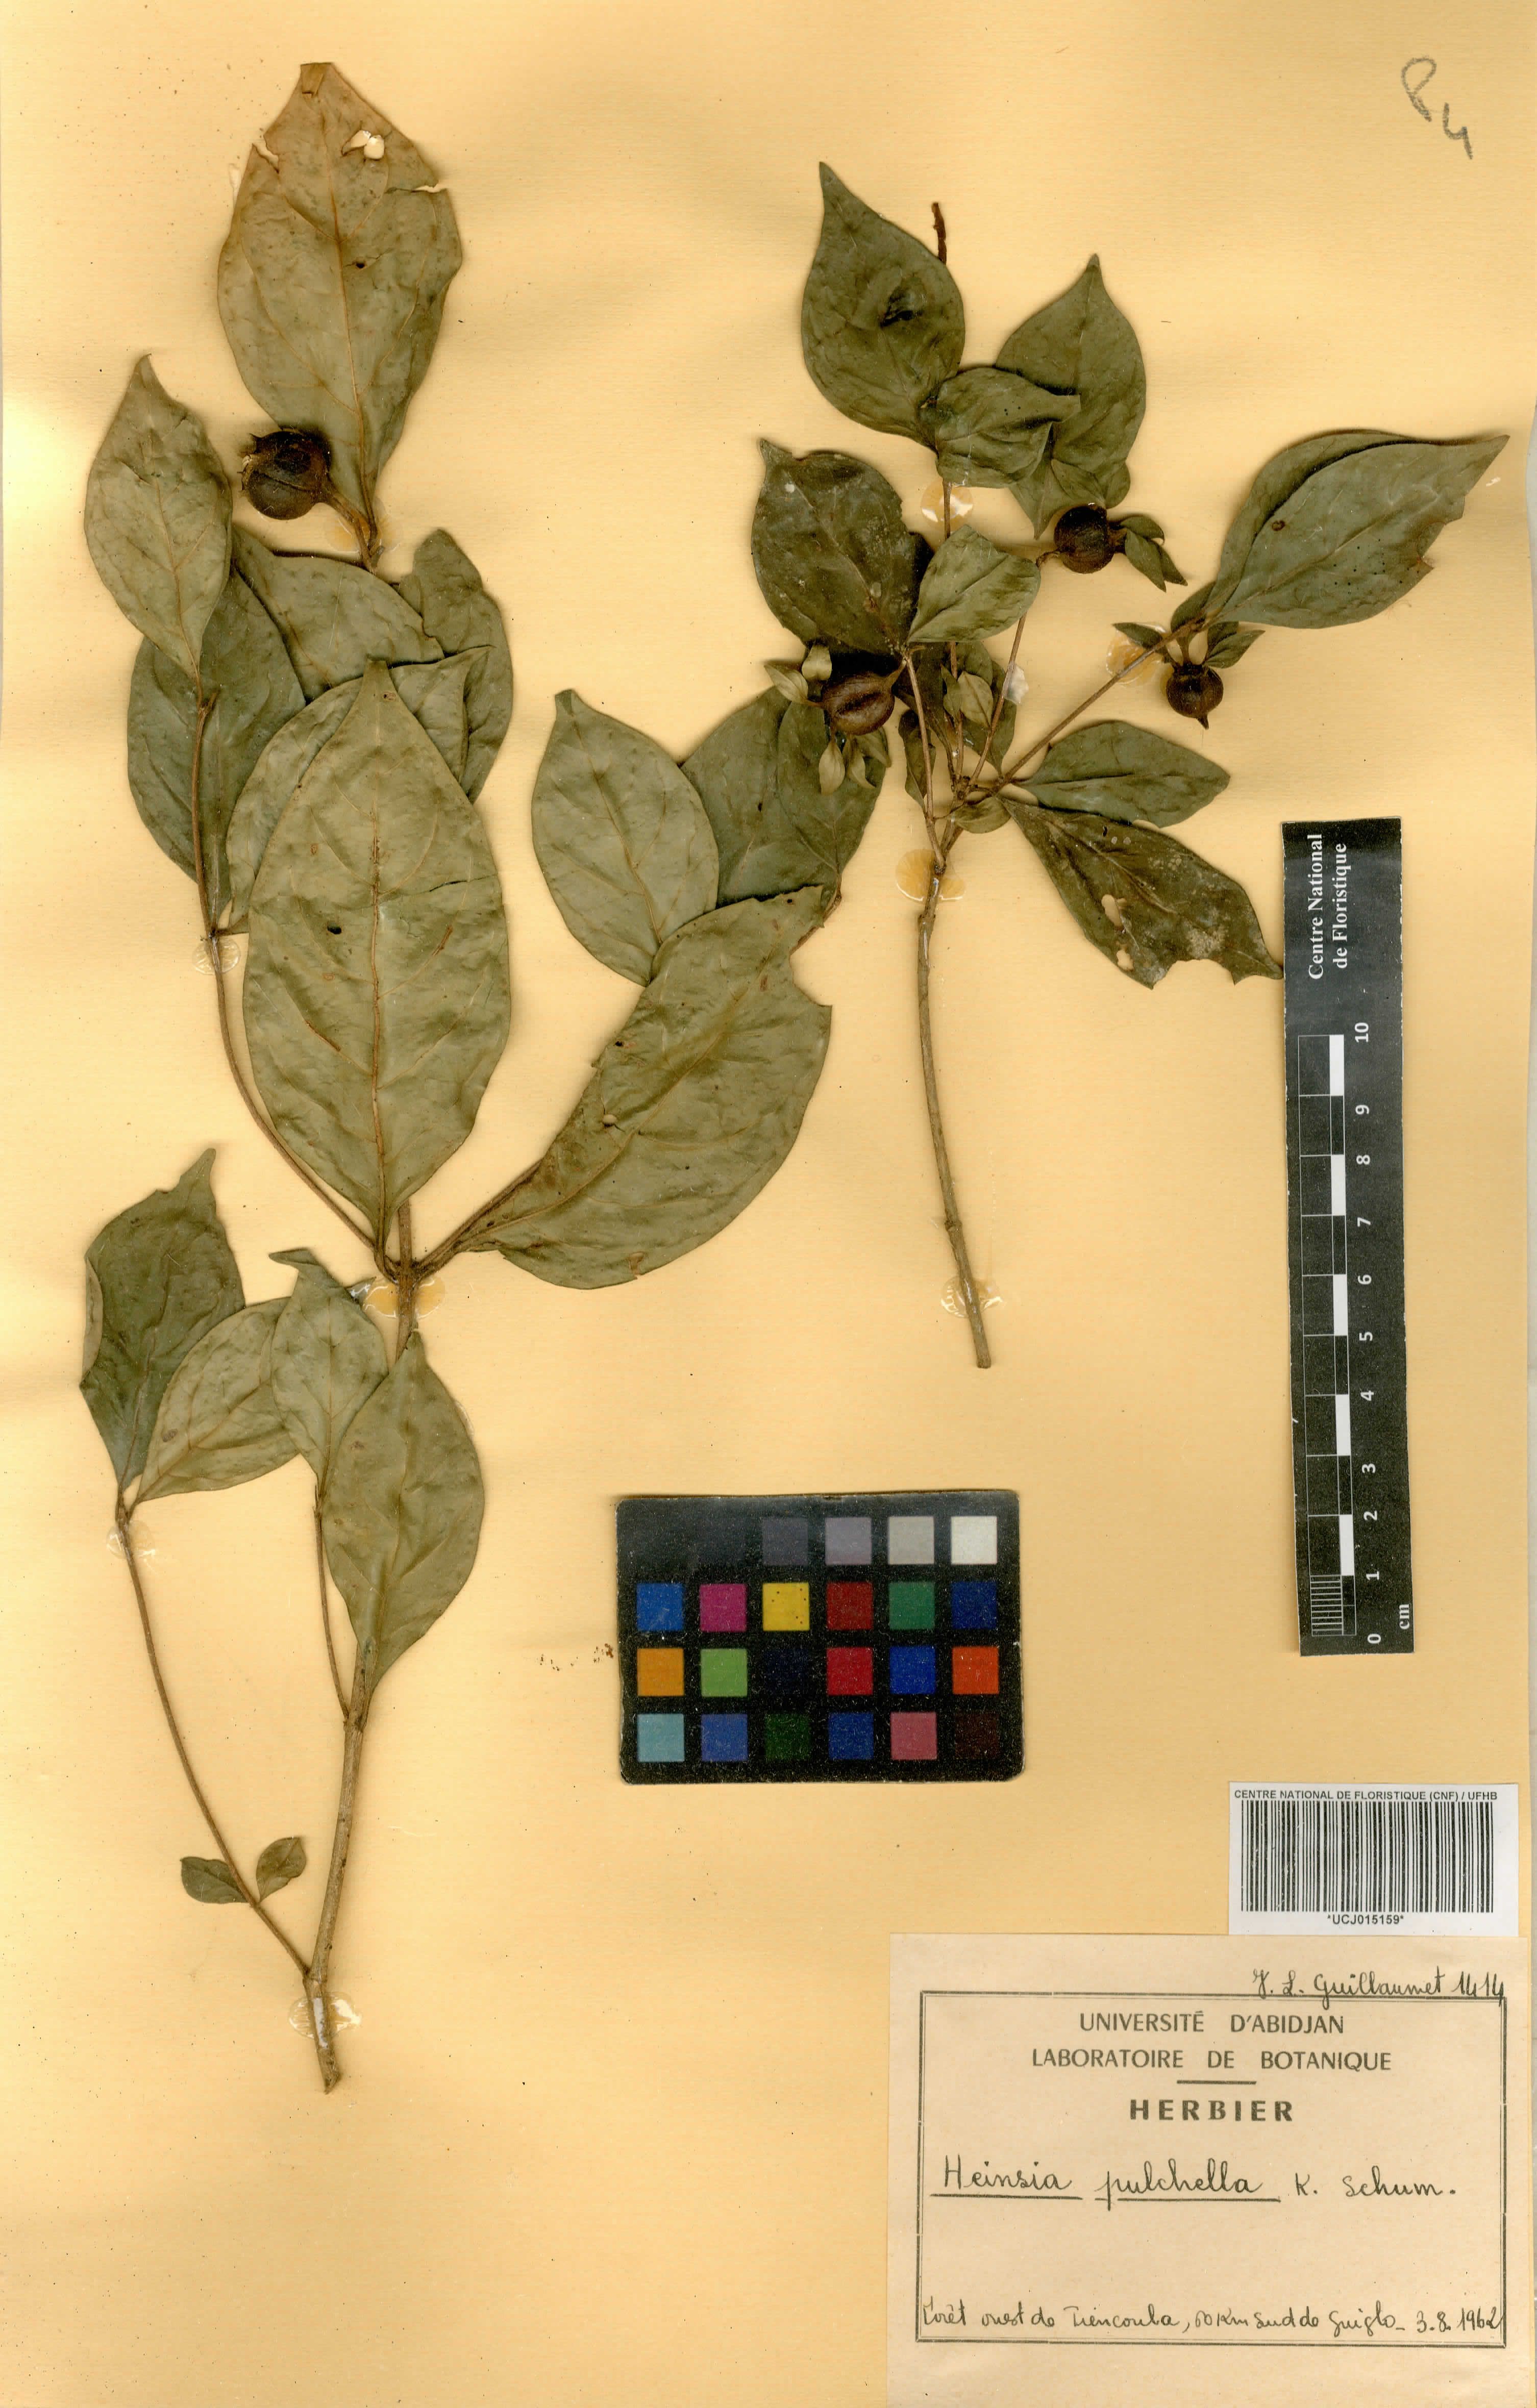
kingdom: Plantae
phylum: Tracheophyta
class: Magnoliopsida
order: Gentianales
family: Rubiaceae
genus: Heinsia
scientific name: Heinsia crinita
